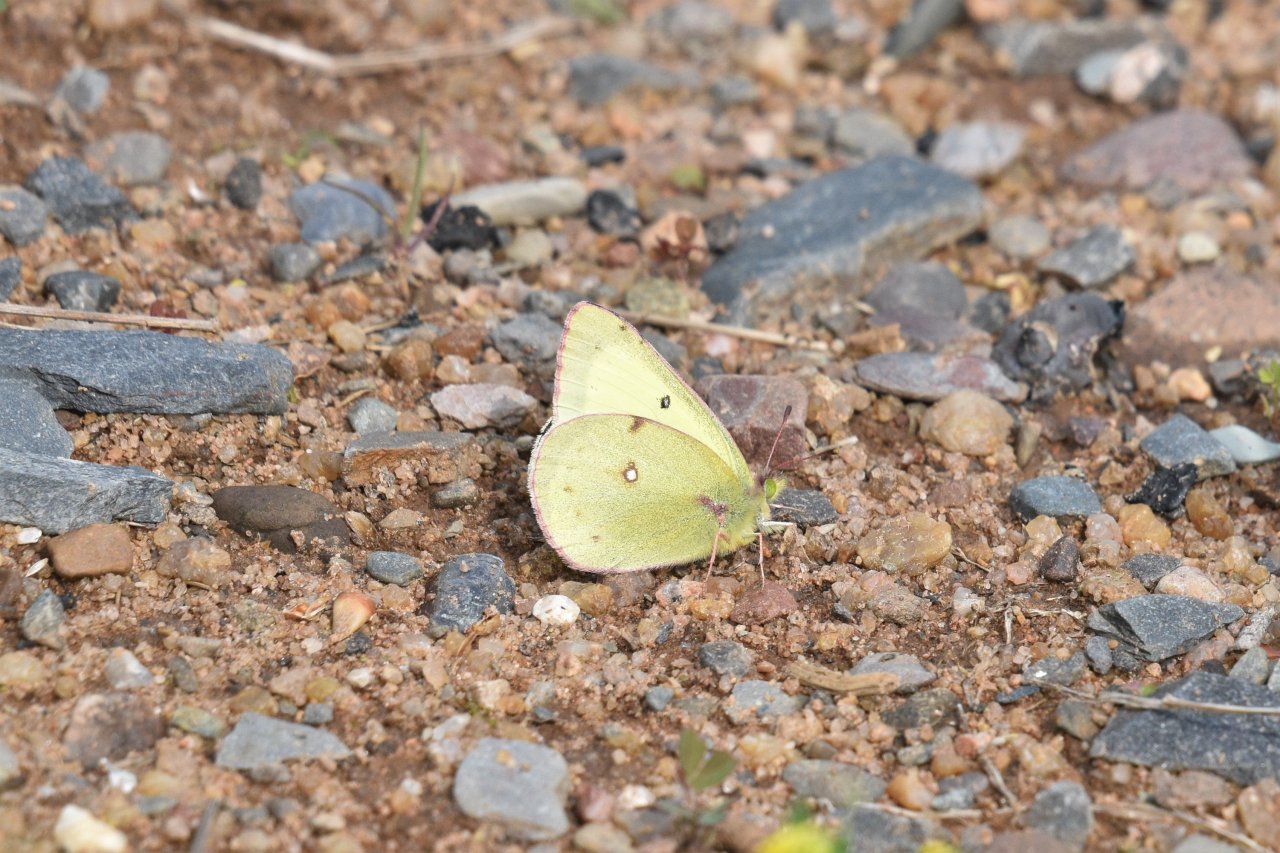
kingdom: Animalia
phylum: Arthropoda
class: Insecta
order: Lepidoptera
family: Pieridae
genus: Colias
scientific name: Colias philodice
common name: Clouded Sulphur
